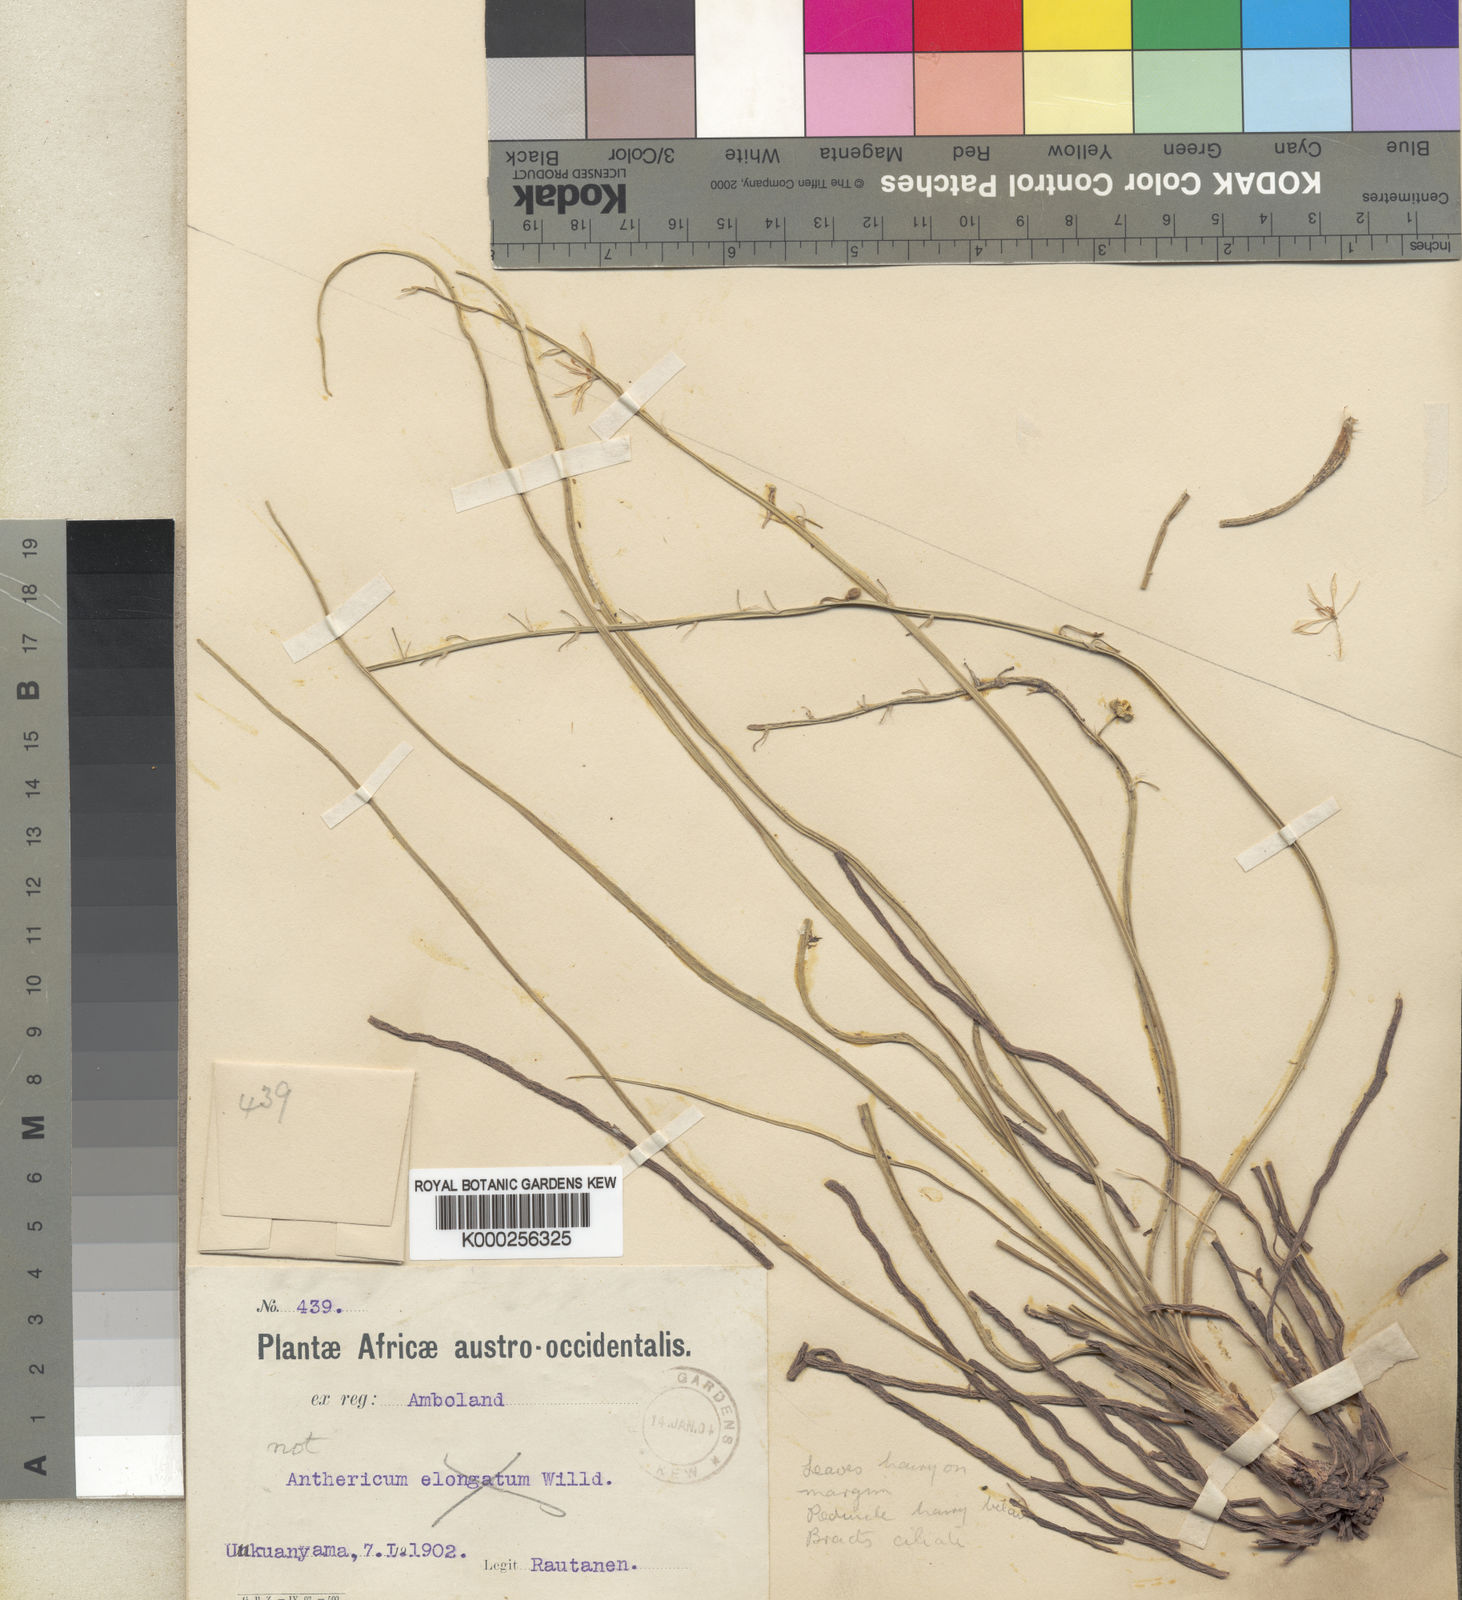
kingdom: Plantae
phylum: Tracheophyta
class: Liliopsida
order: Asparagales
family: Asphodelaceae
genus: Trachyandra
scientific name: Trachyandra saltii
